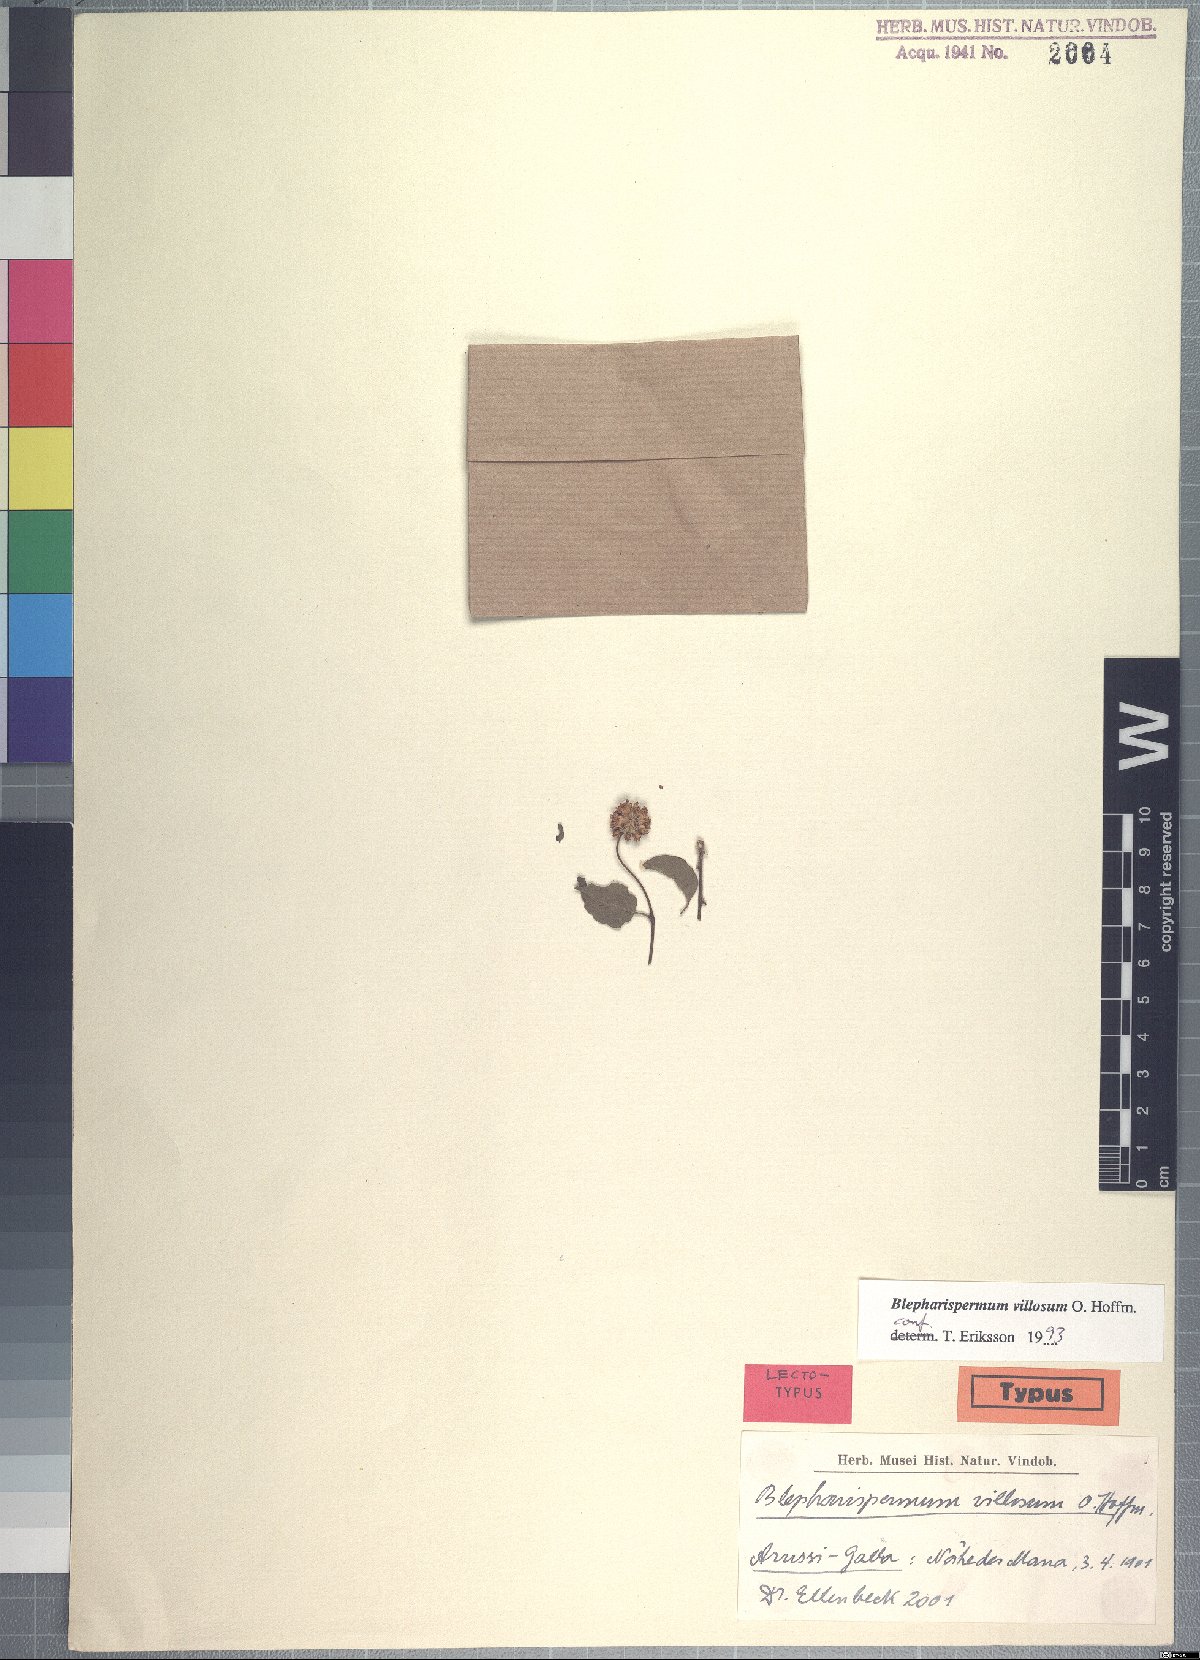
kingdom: Plantae
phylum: Tracheophyta
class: Magnoliopsida
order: Asterales
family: Asteraceae
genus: Blepharispermum
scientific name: Blepharispermum villosum
